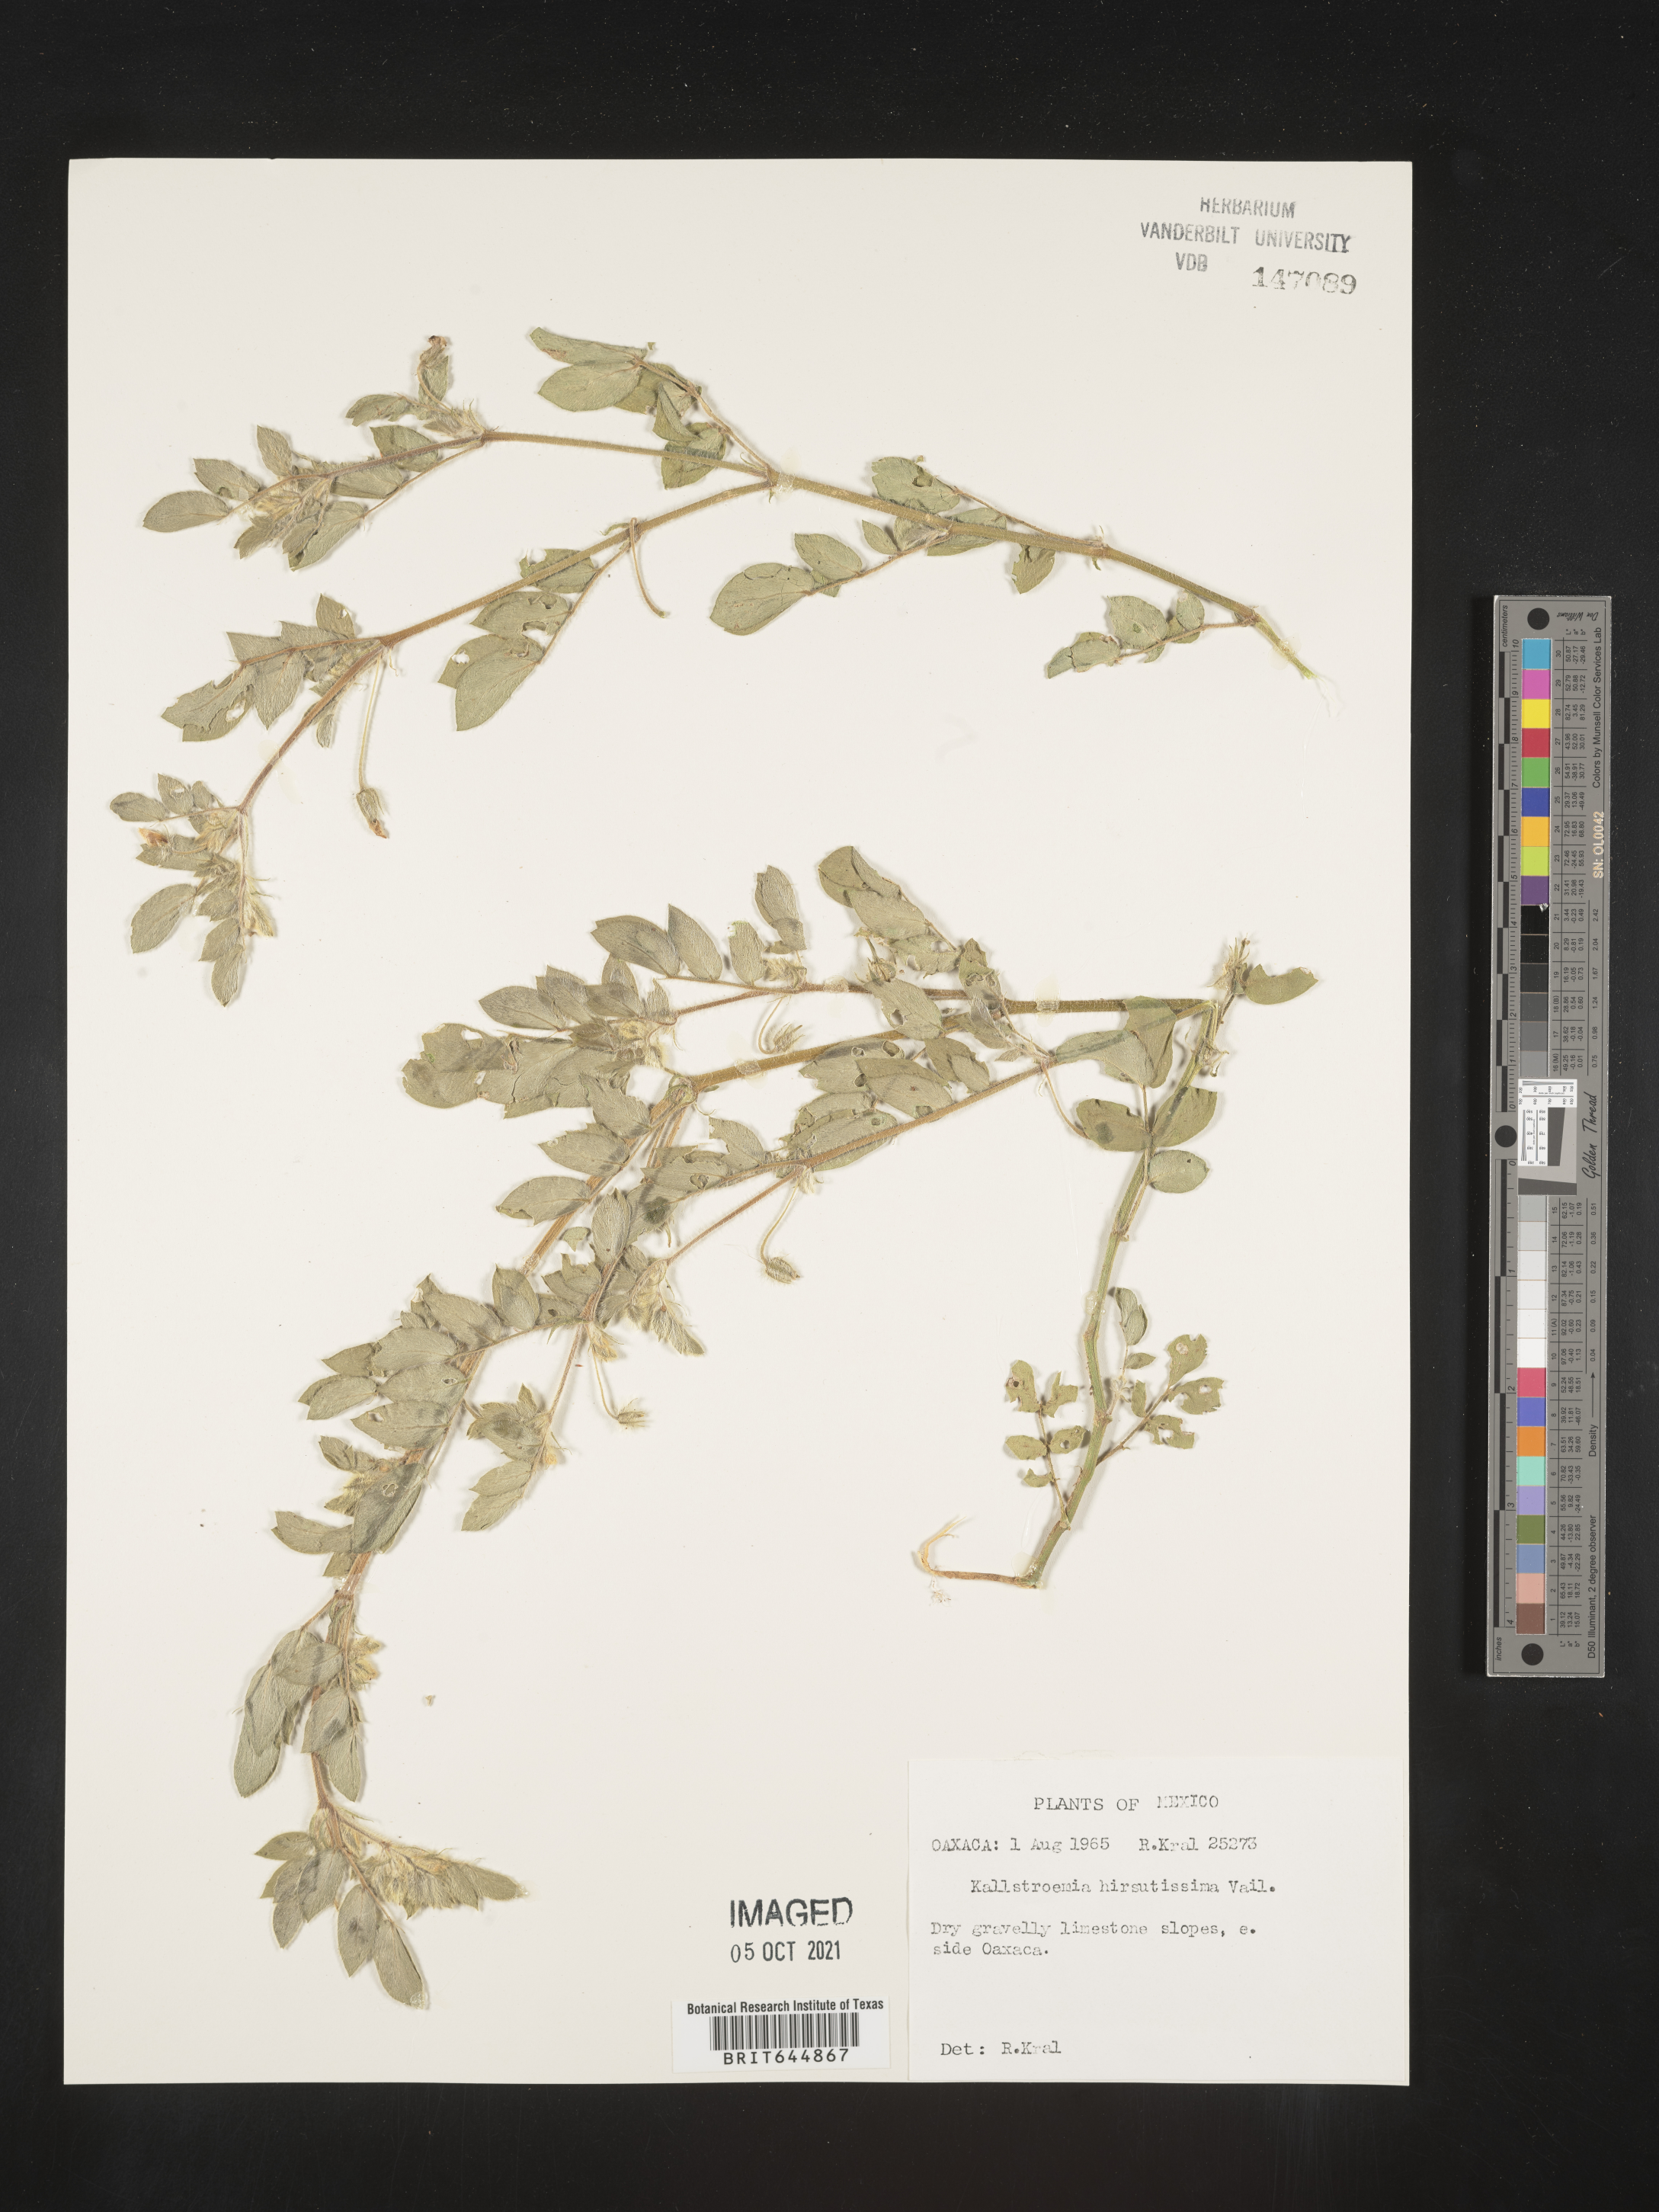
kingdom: Plantae
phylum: Tracheophyta
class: Magnoliopsida
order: Zygophyllales
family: Zygophyllaceae
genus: Kallstroemia
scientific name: Kallstroemia
